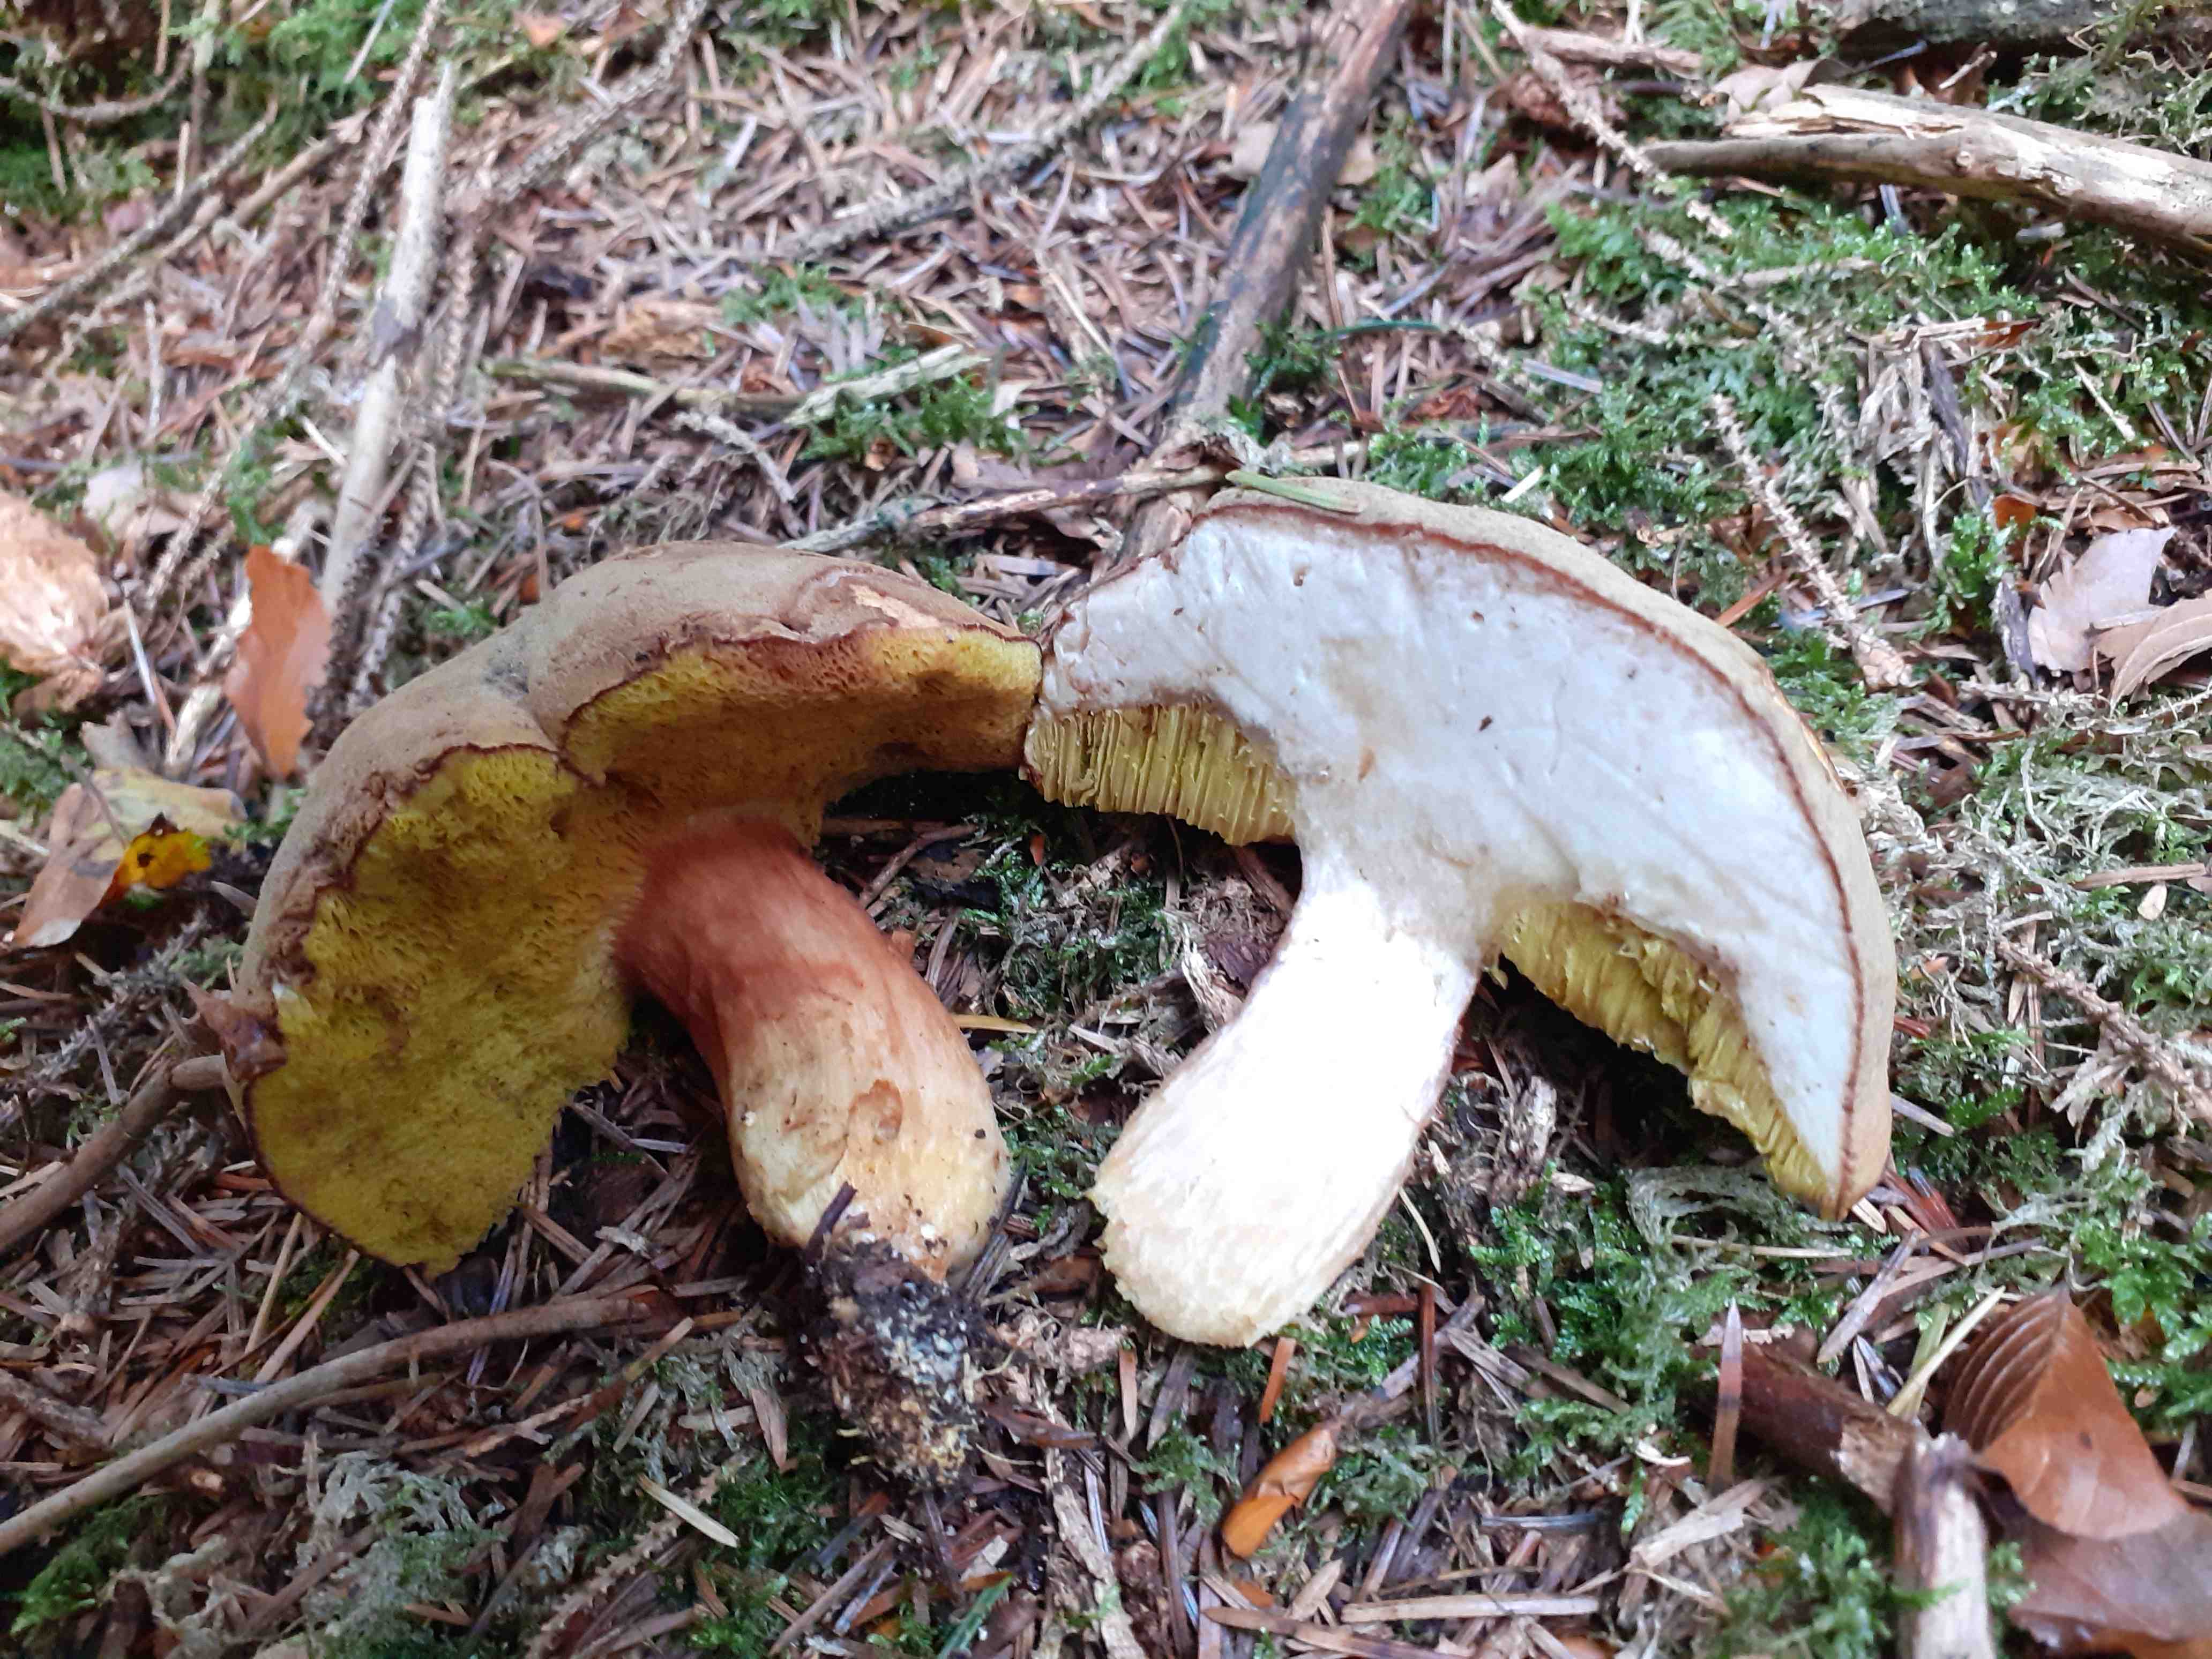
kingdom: Fungi
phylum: Basidiomycota
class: Agaricomycetes
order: Boletales
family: Boletaceae
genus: Xerocomus
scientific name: Xerocomus ferrugineus
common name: vaskeskinds-rørhat
